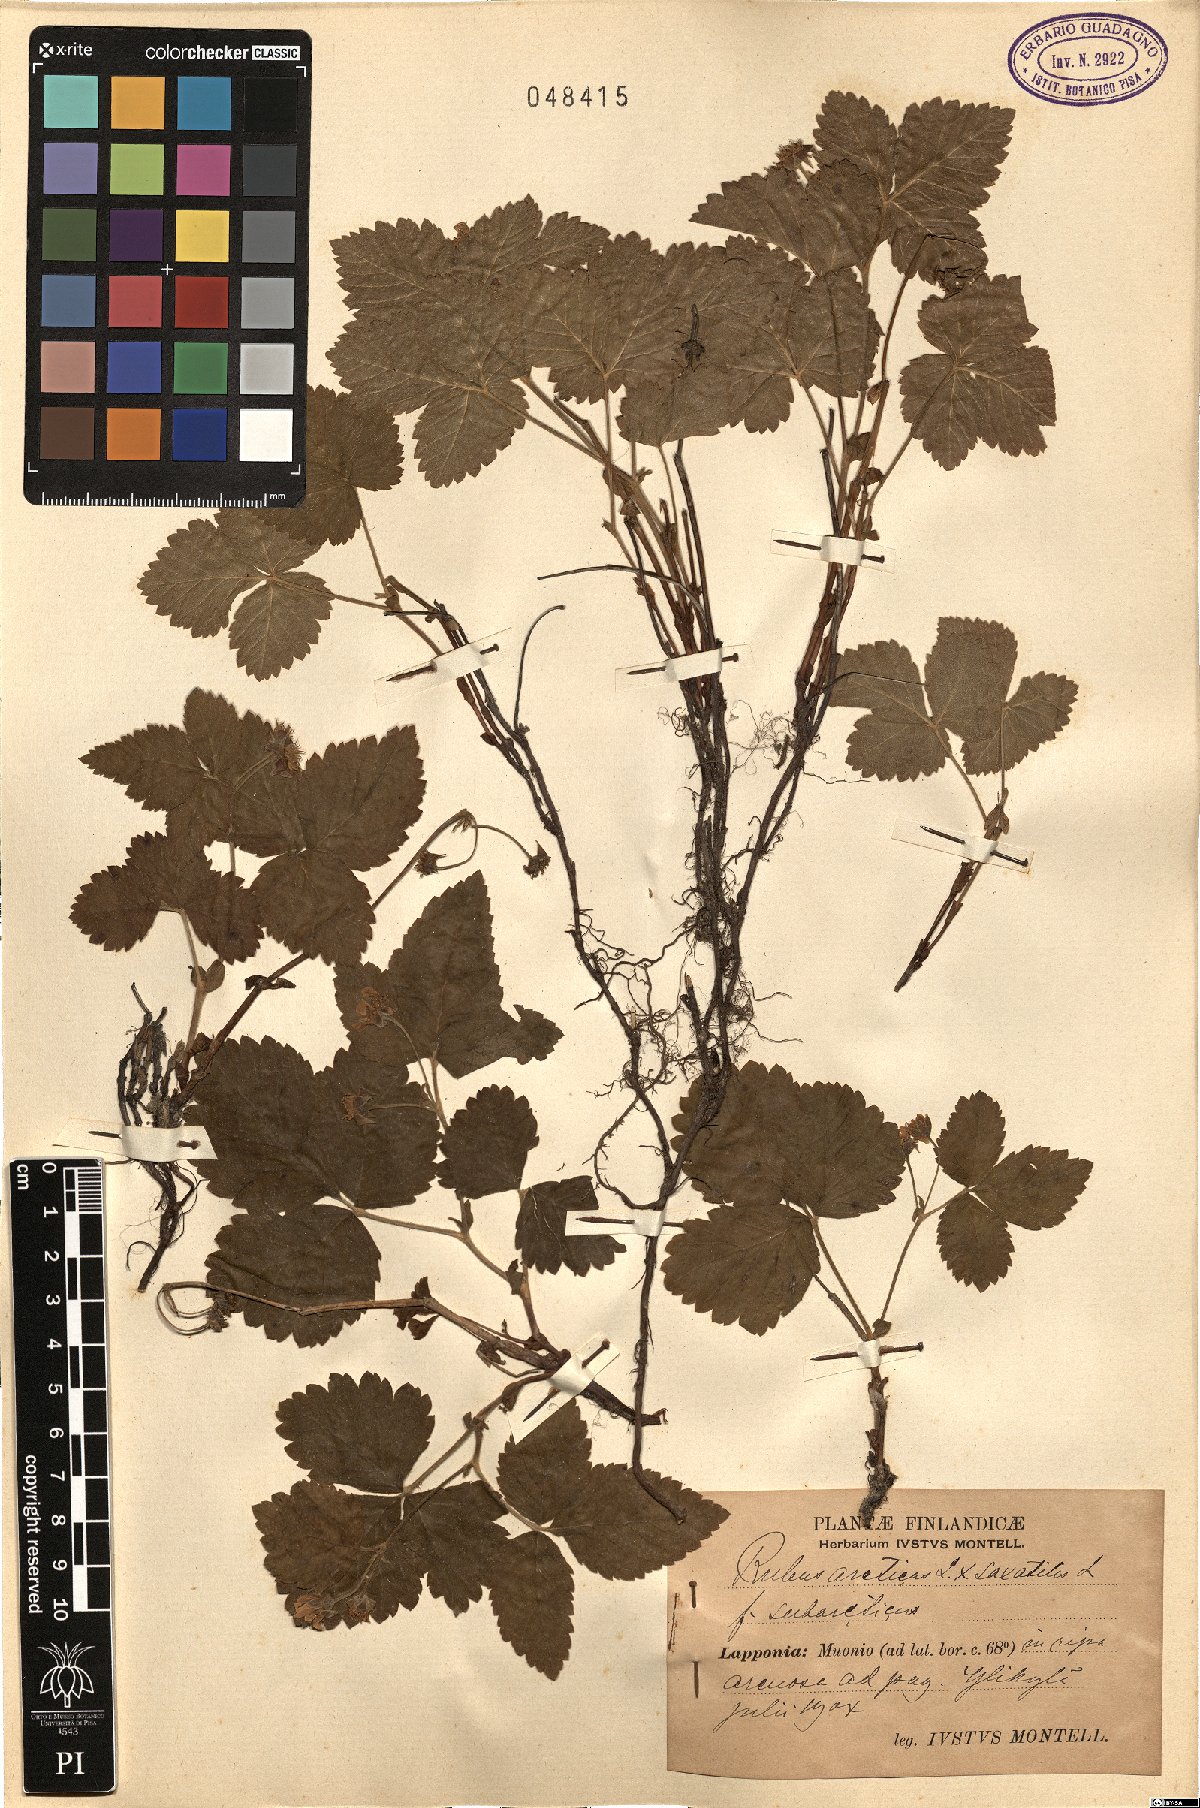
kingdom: Plantae
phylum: Tracheophyta
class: Magnoliopsida
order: Rosales
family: Rosaceae
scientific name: Rosaceae
